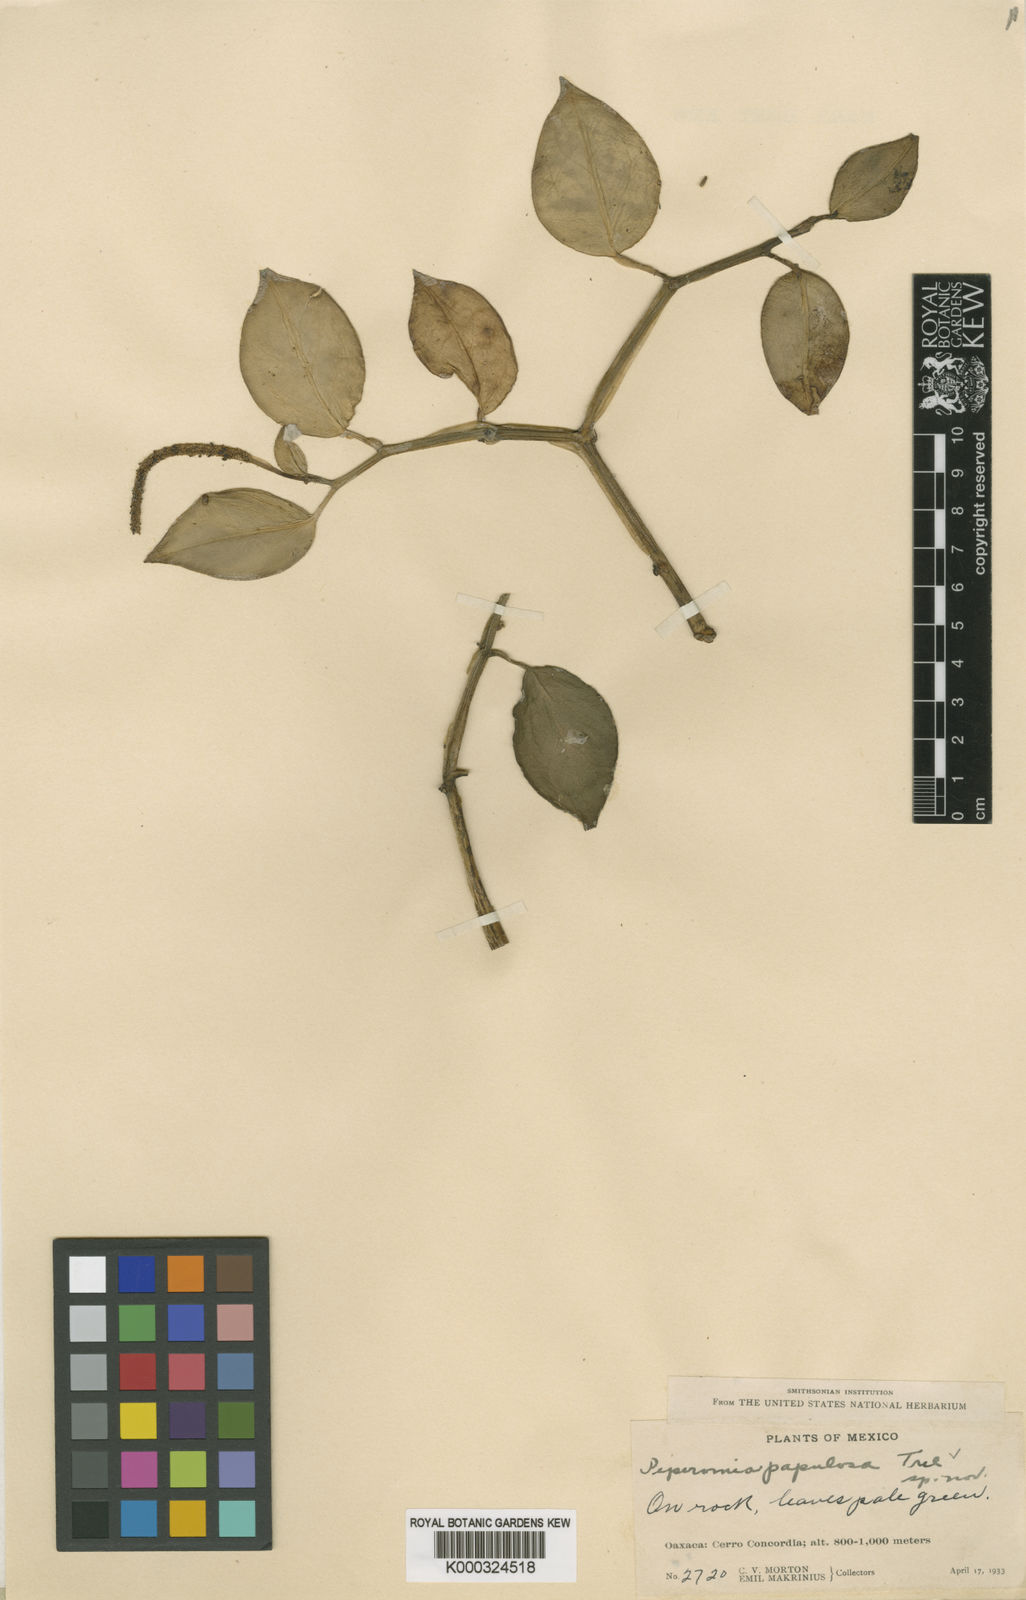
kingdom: Plantae
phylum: Tracheophyta
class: Magnoliopsida
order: Piperales
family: Piperaceae
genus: Peperomia
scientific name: Peperomia
